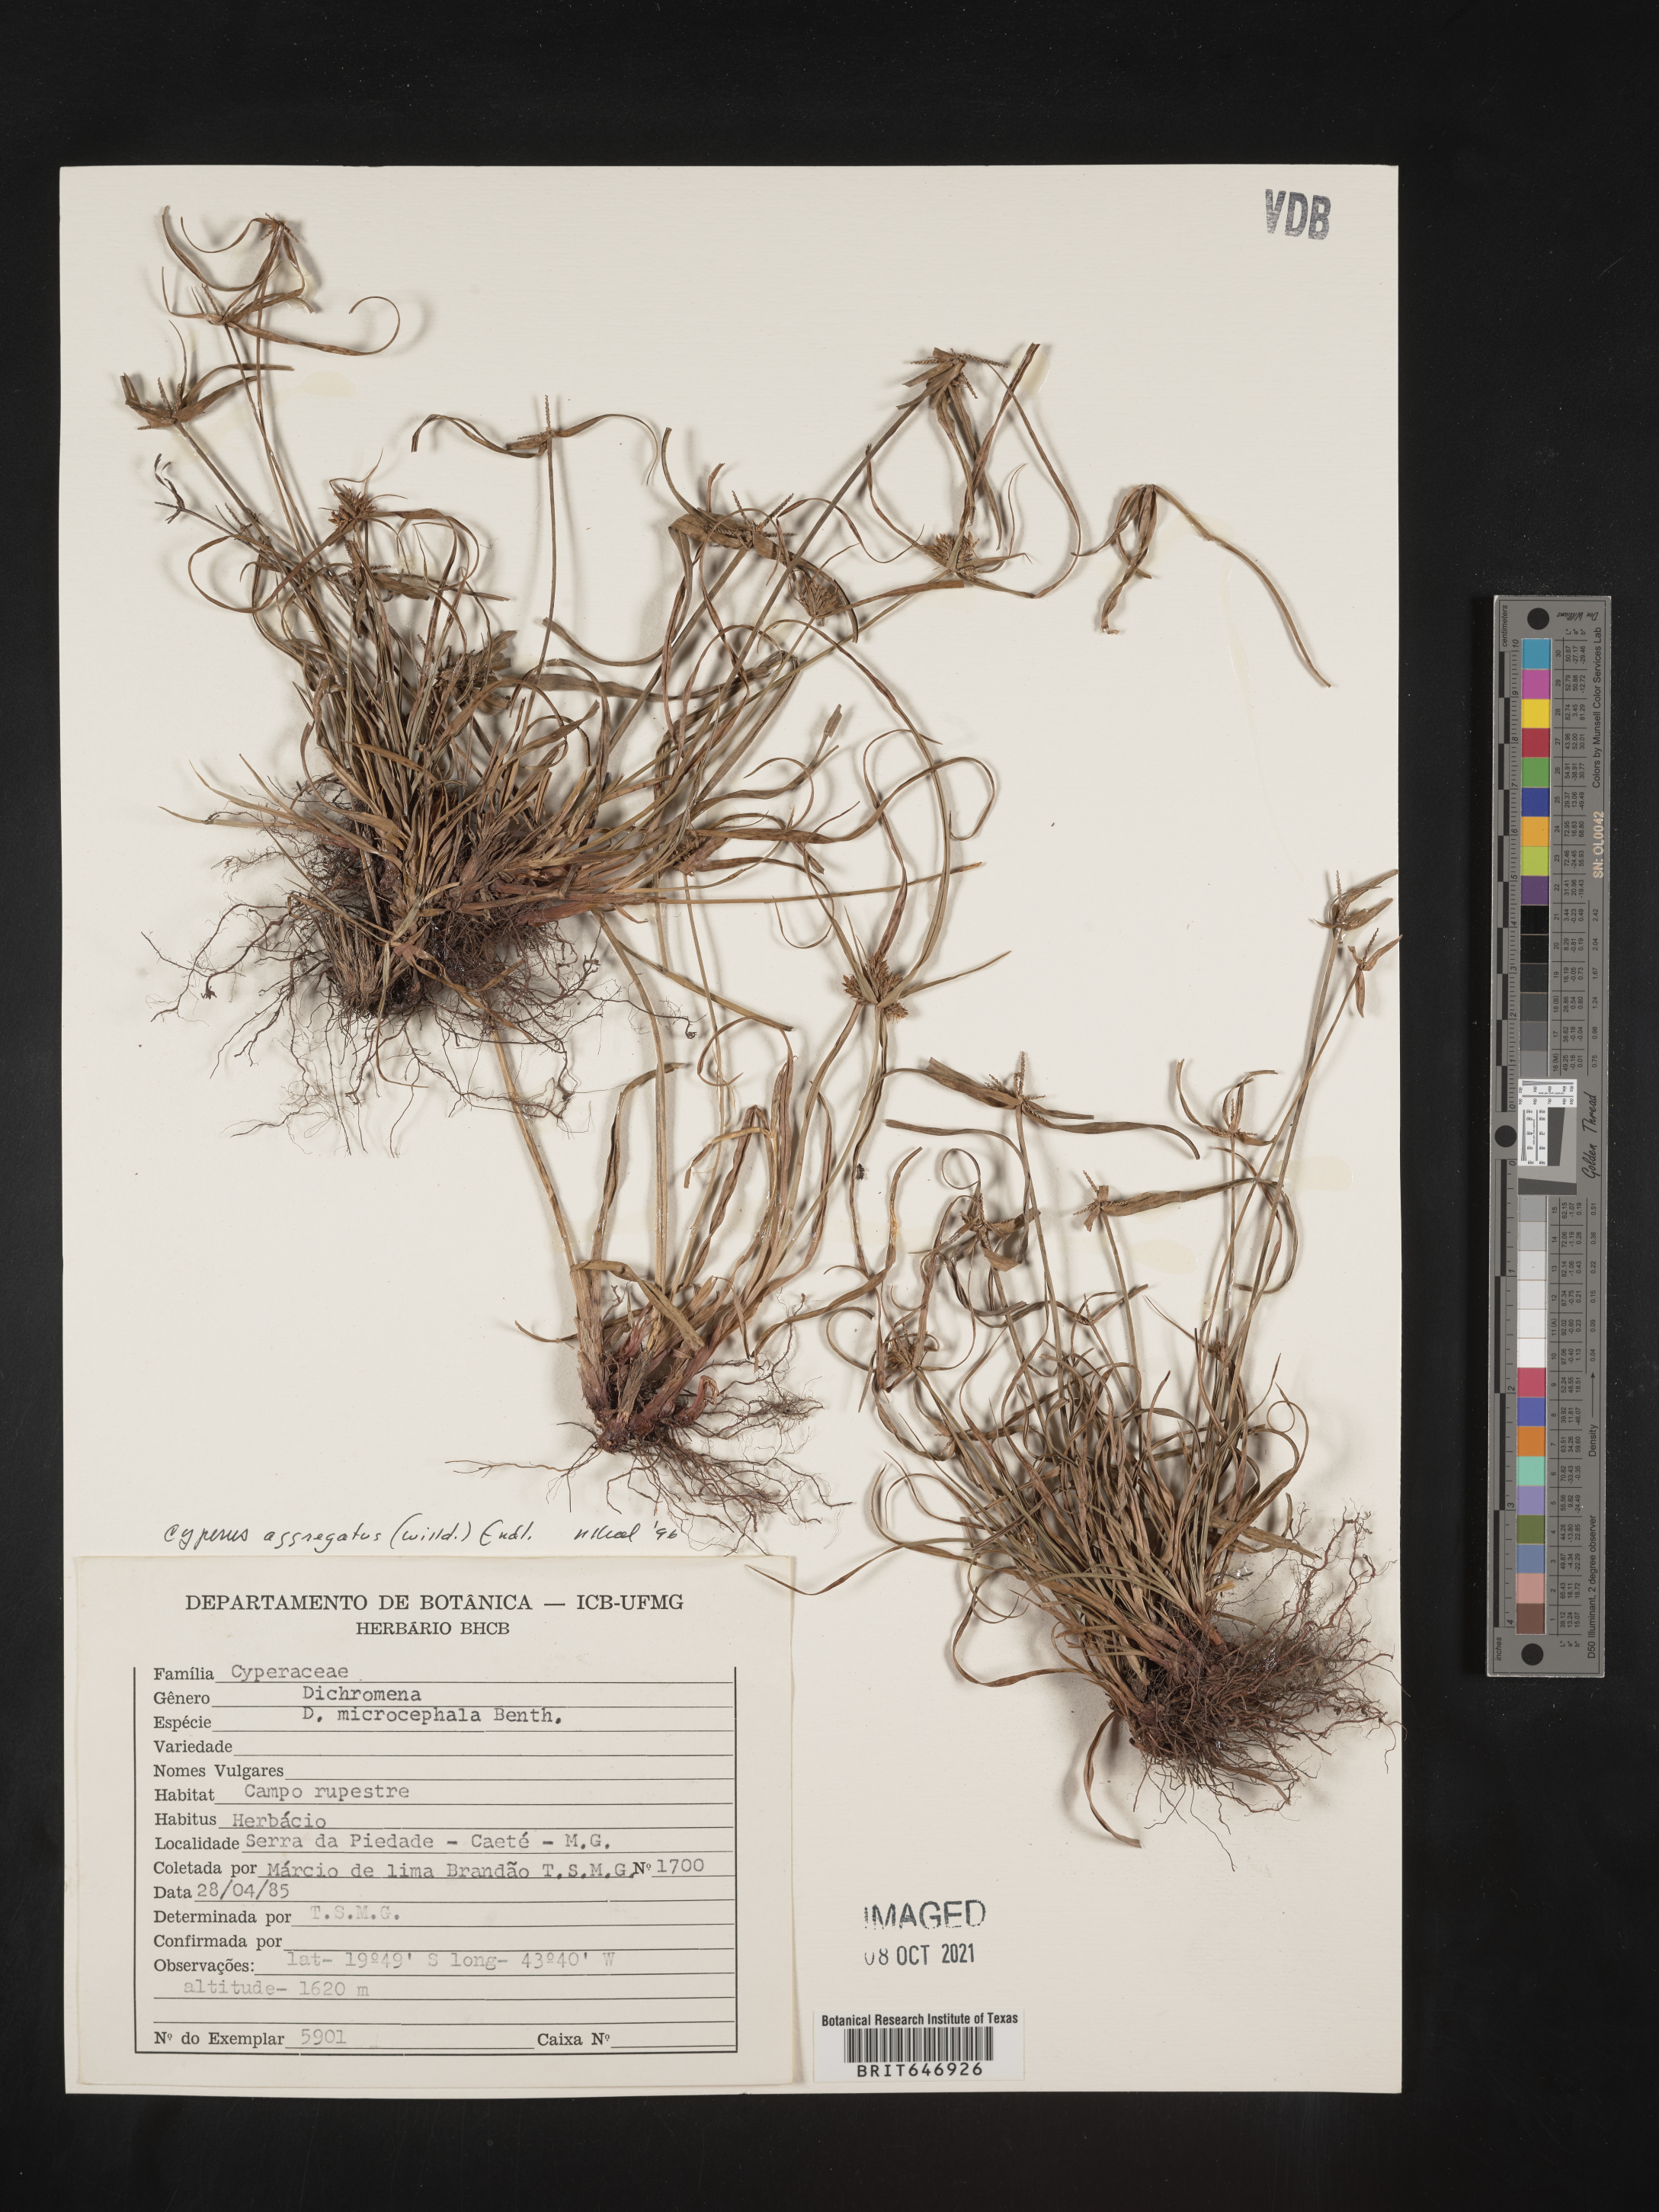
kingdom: Plantae
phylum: Tracheophyta
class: Liliopsida
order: Poales
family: Cyperaceae
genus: Cyperus
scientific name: Cyperus aggregatus
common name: Inflatedscale flatsedge
